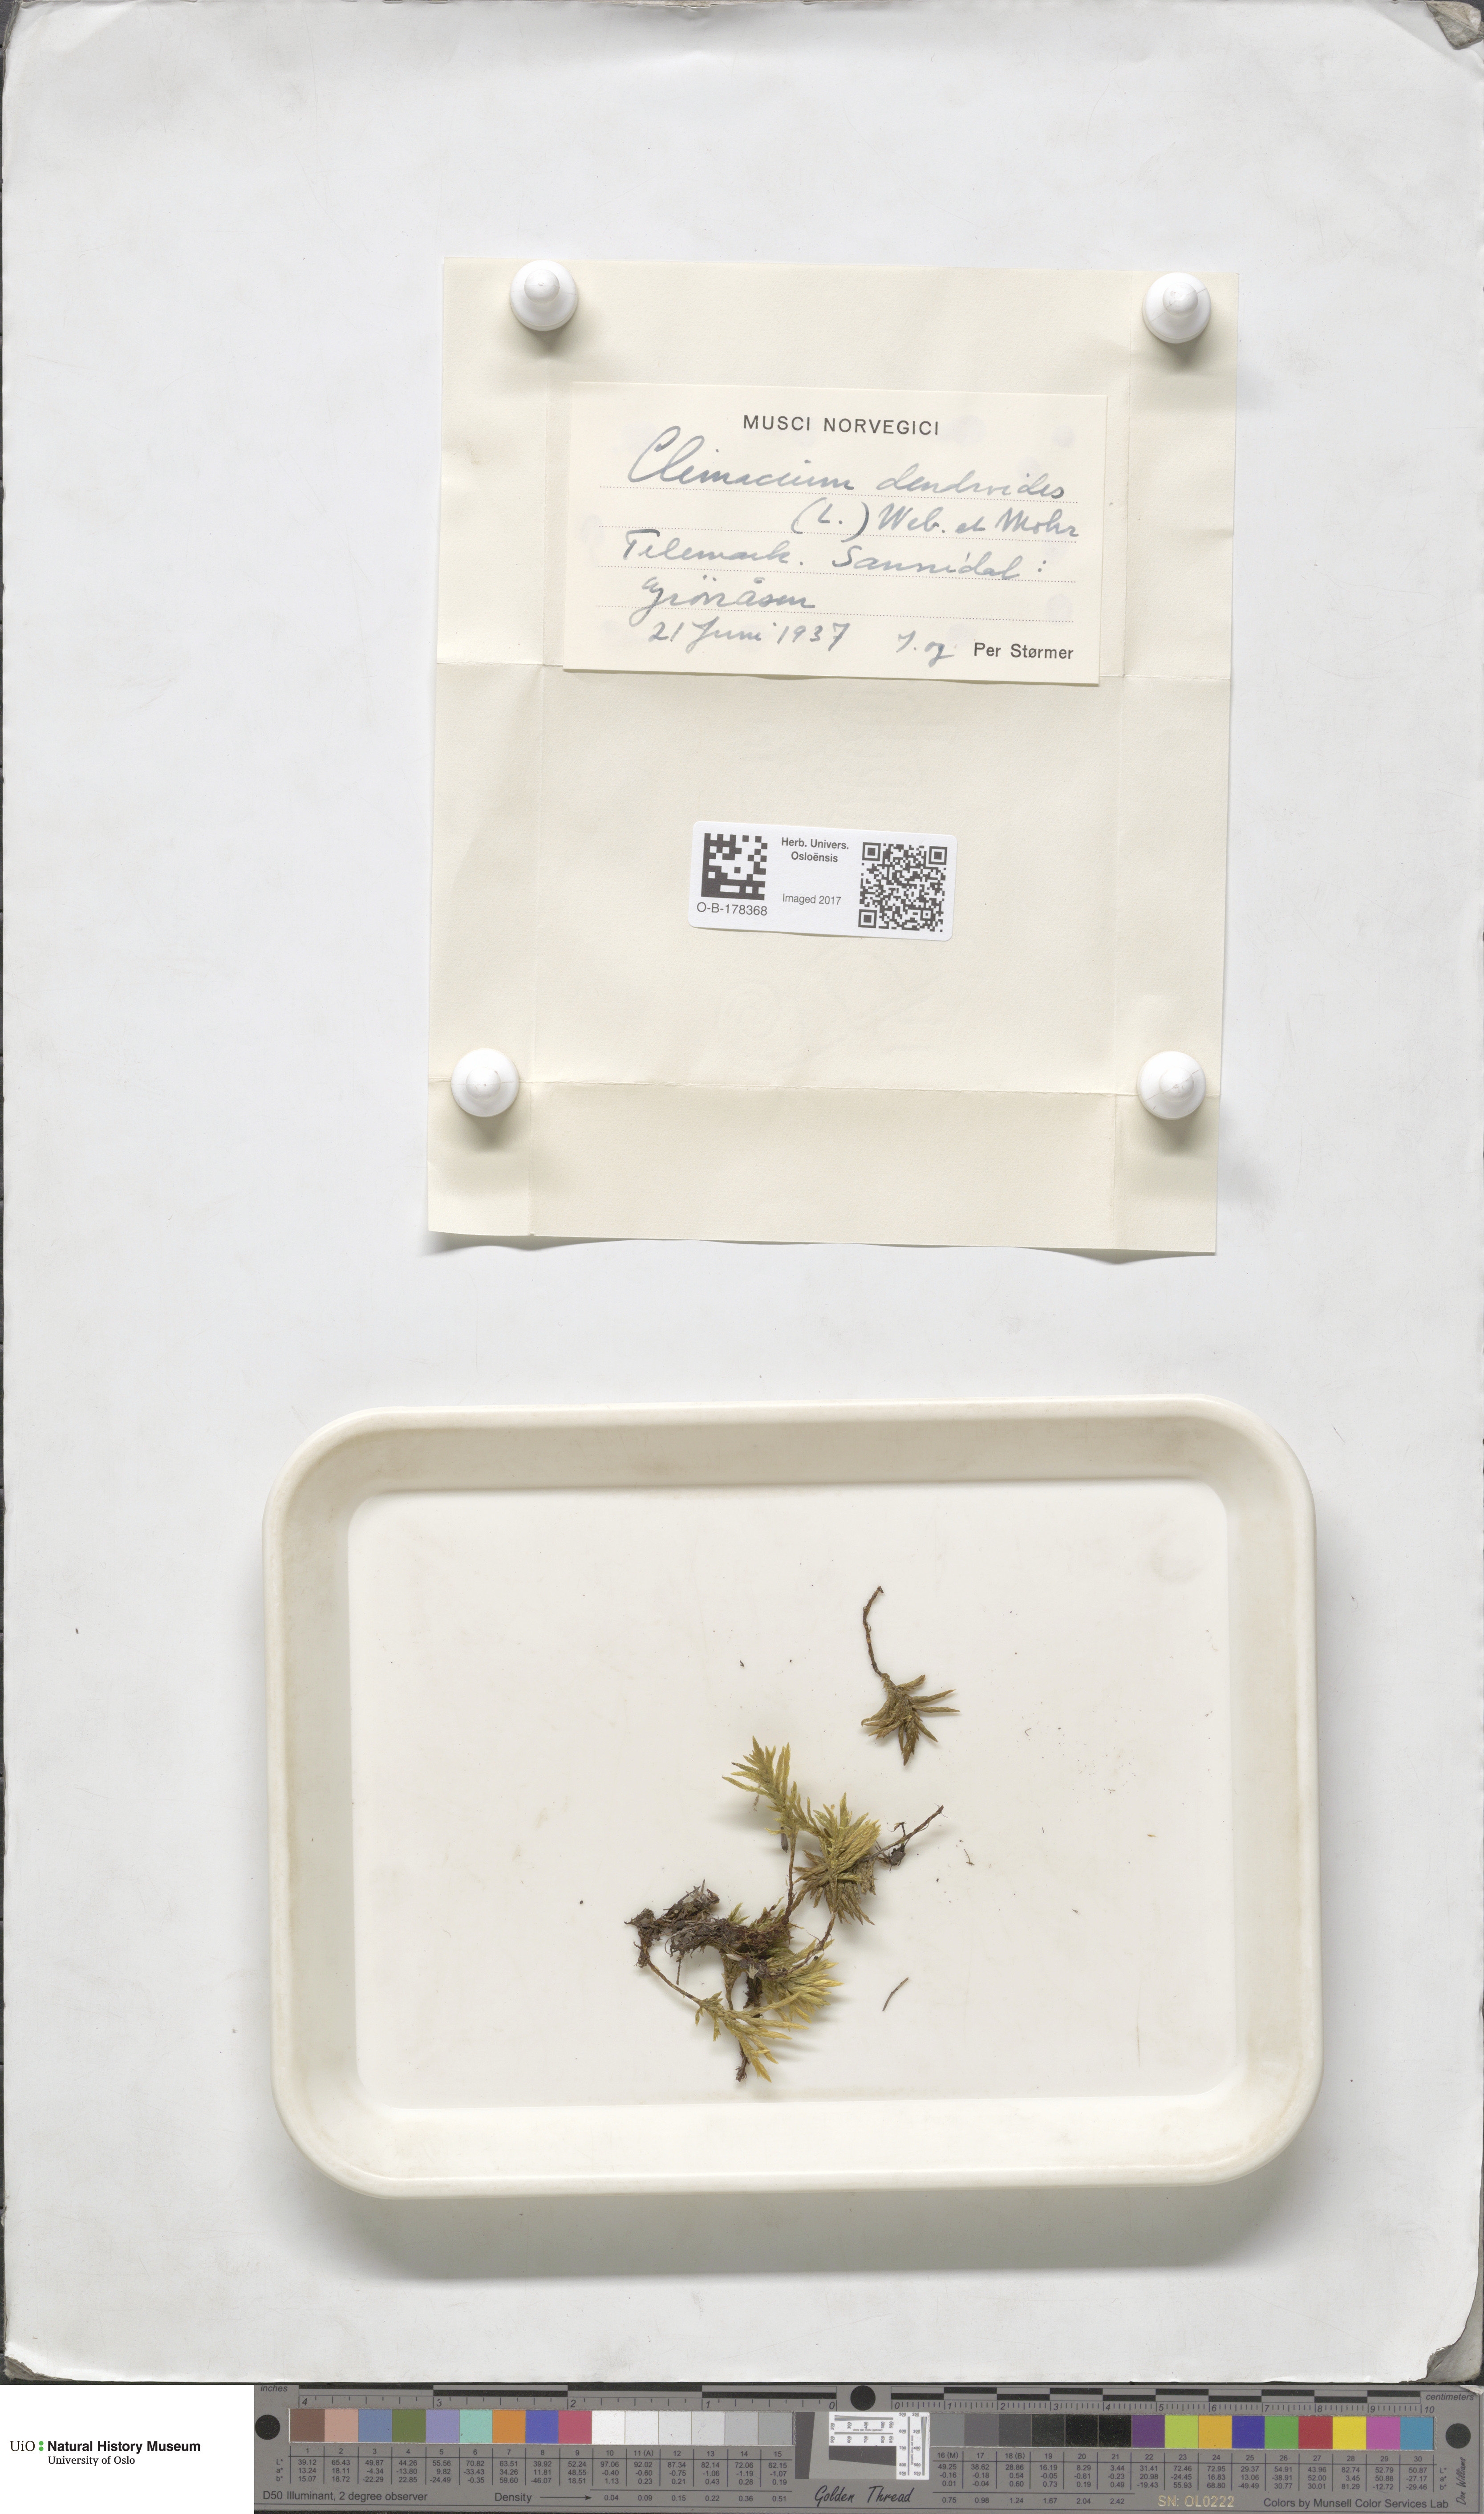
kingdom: Plantae
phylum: Bryophyta
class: Bryopsida
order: Hypnales
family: Climaciaceae
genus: Climacium
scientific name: Climacium dendroides
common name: Northern tree moss
